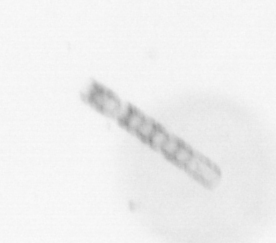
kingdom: Chromista
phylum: Ochrophyta
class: Bacillariophyceae
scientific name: Bacillariophyceae
